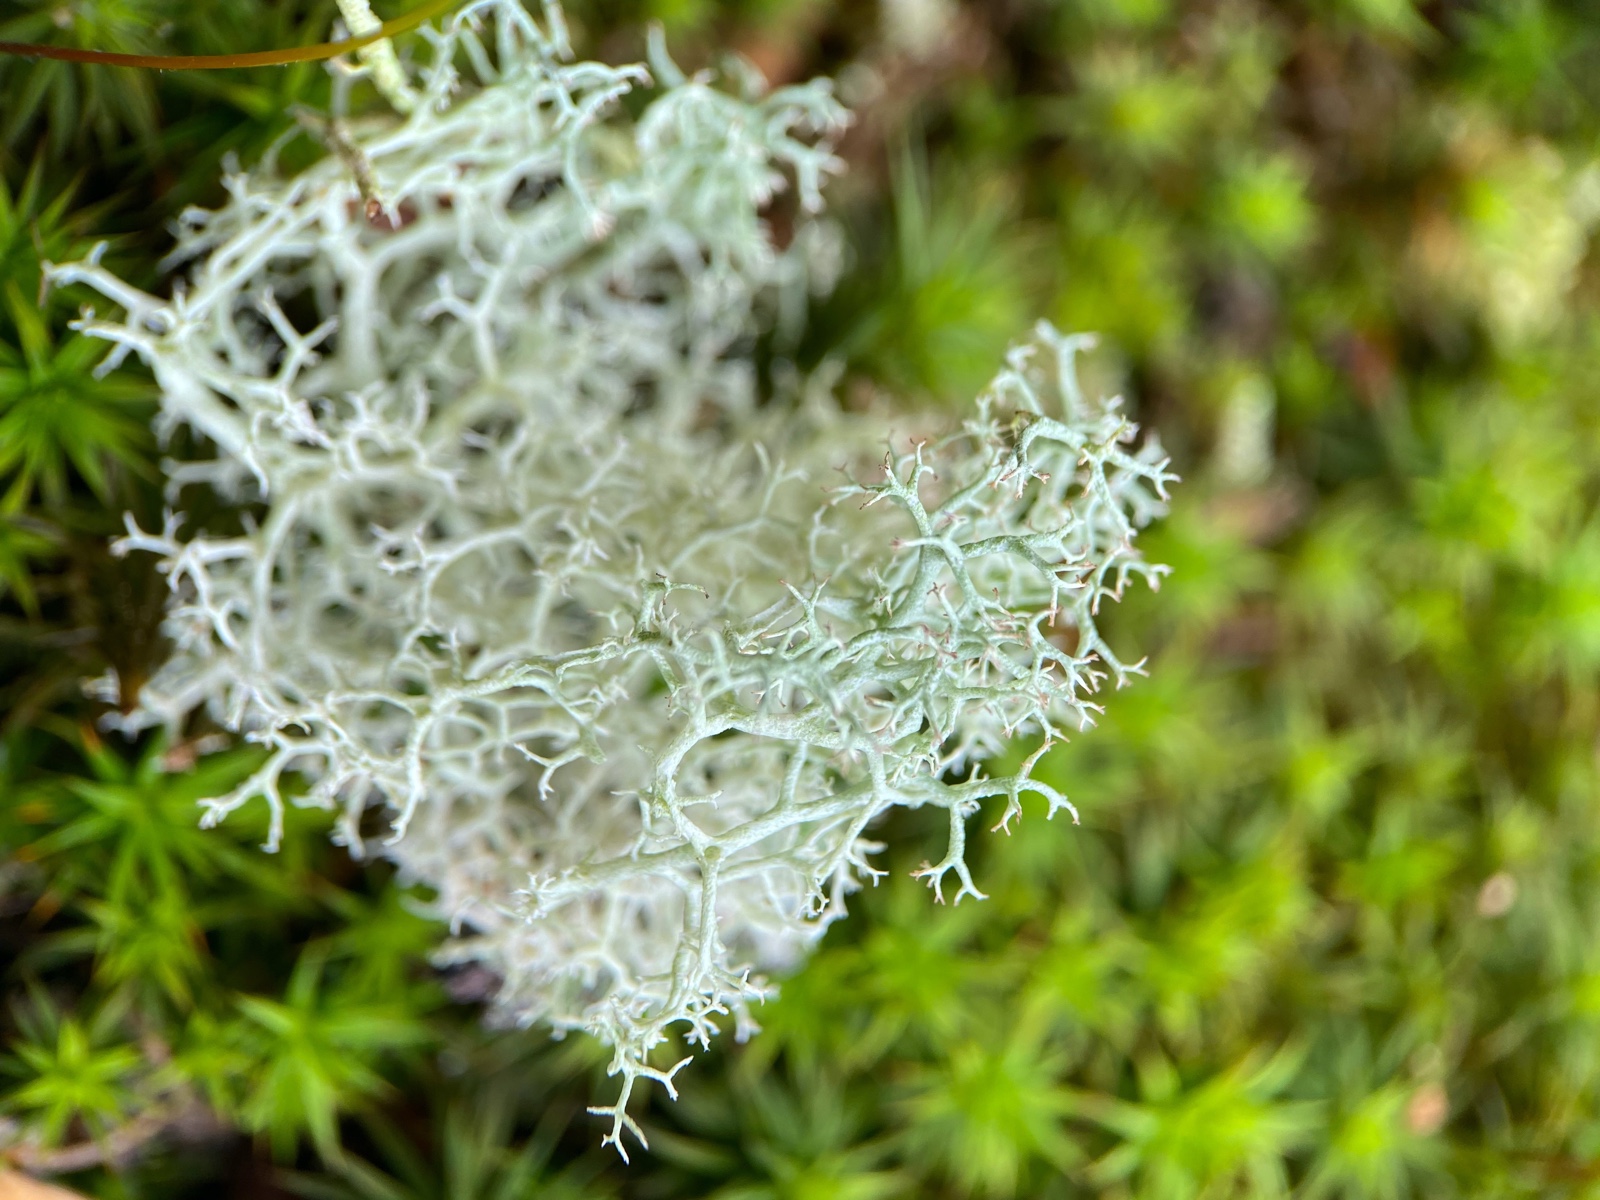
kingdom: Fungi
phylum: Ascomycota
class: Lecanoromycetes
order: Lecanorales
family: Cladoniaceae
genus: Cladonia
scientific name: Cladonia portentosa
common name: hede-rensdyrlav
